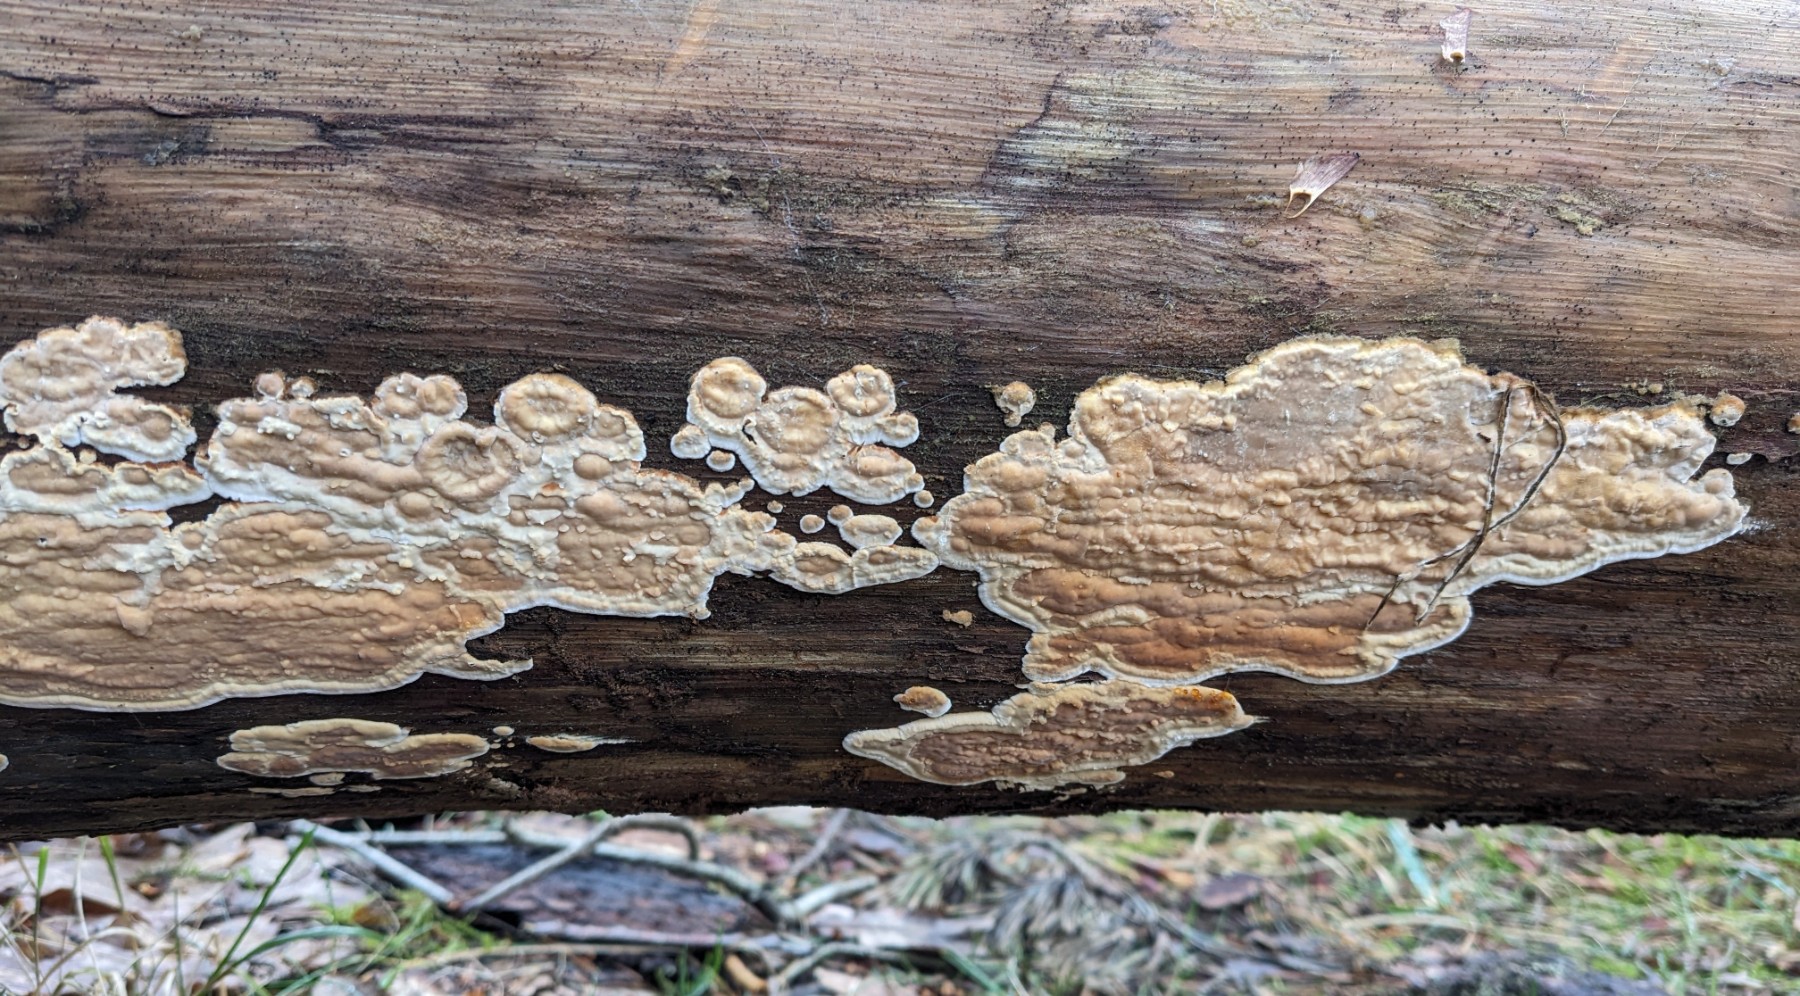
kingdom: Fungi
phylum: Basidiomycota
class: Agaricomycetes
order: Polyporales
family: Dacryobolaceae
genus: Dacryobolus
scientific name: Dacryobolus karstenii
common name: glat vulkanskorpe
